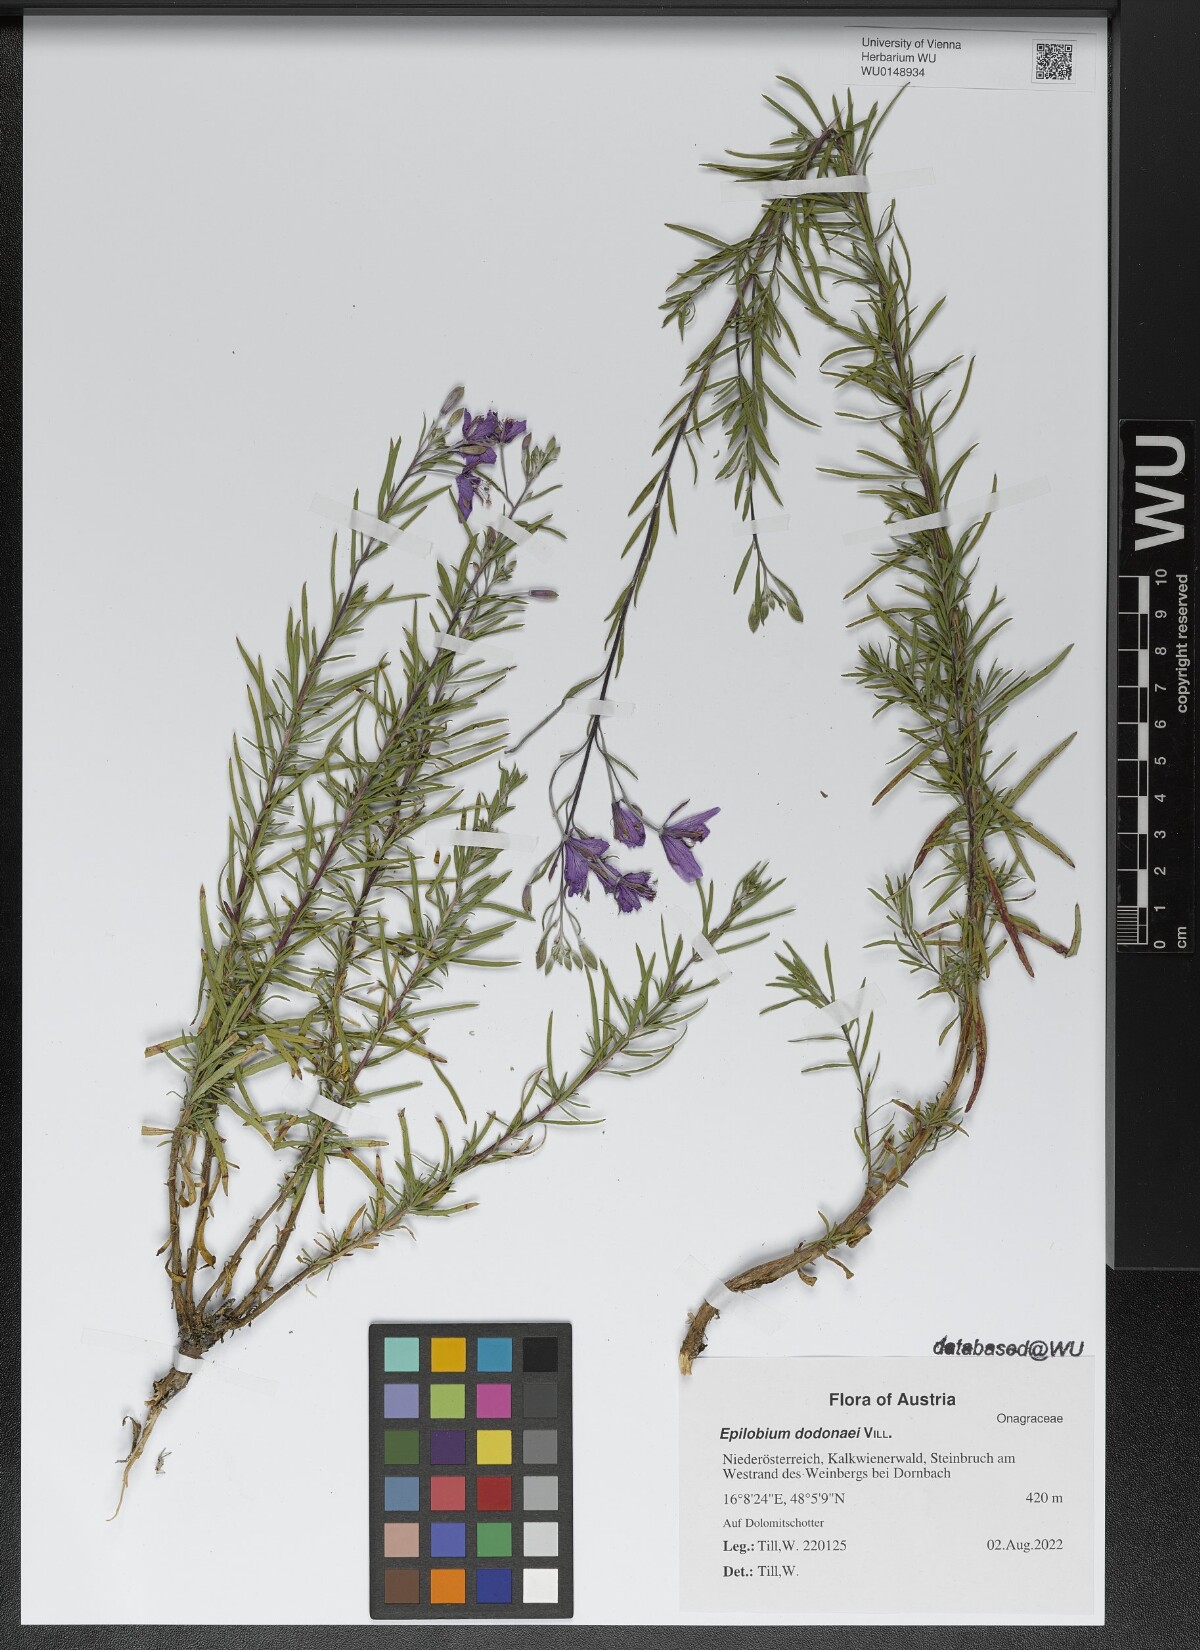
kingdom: Plantae
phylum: Tracheophyta
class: Magnoliopsida
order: Myrtales
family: Onagraceae
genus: Chamaenerion
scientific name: Chamaenerion dodonaei
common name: Rosemary-leaved willowherb
